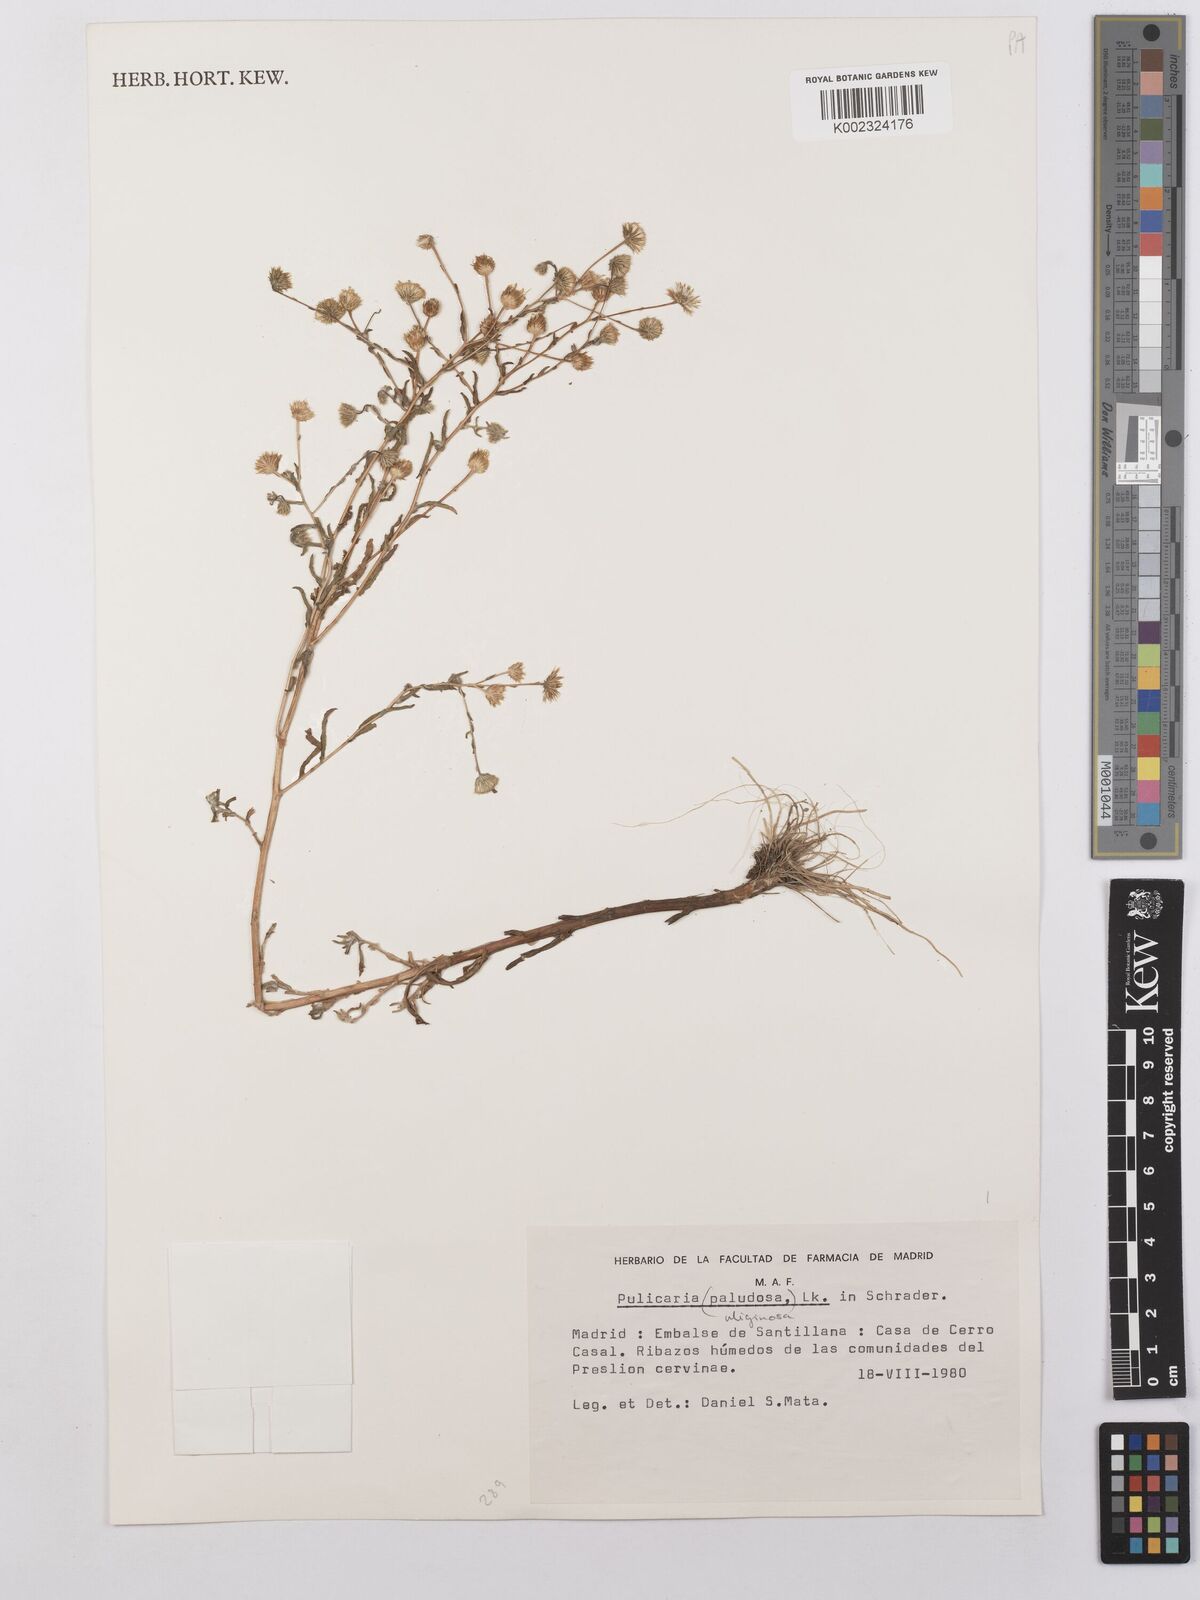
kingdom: Plantae
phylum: Tracheophyta
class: Magnoliopsida
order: Asterales
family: Asteraceae
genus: Pulicaria
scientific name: Pulicaria arabica
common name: Ladies' false fleabane
